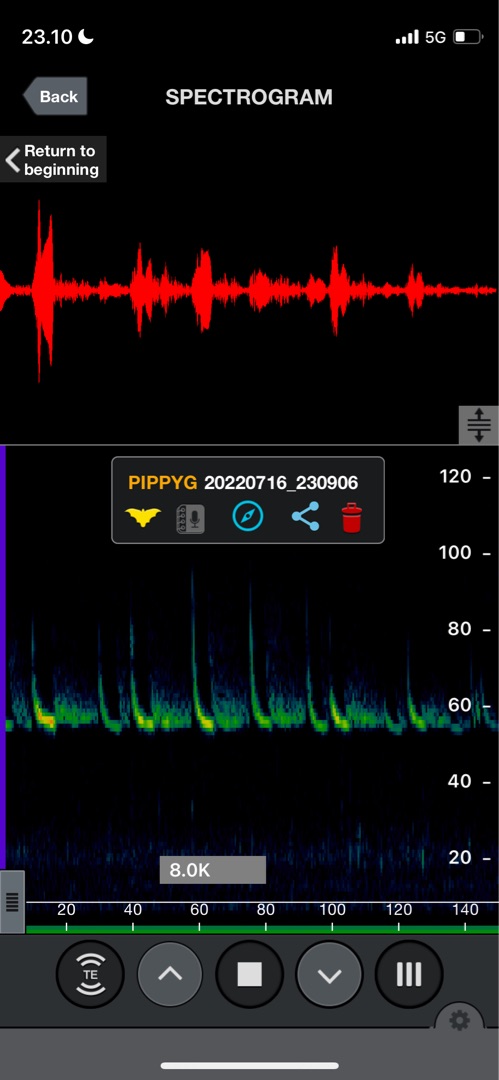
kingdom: Animalia
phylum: Chordata
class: Mammalia
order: Chiroptera
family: Vespertilionidae
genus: Pipistrellus
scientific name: Pipistrellus pygmaeus
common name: Dværgflagermus
